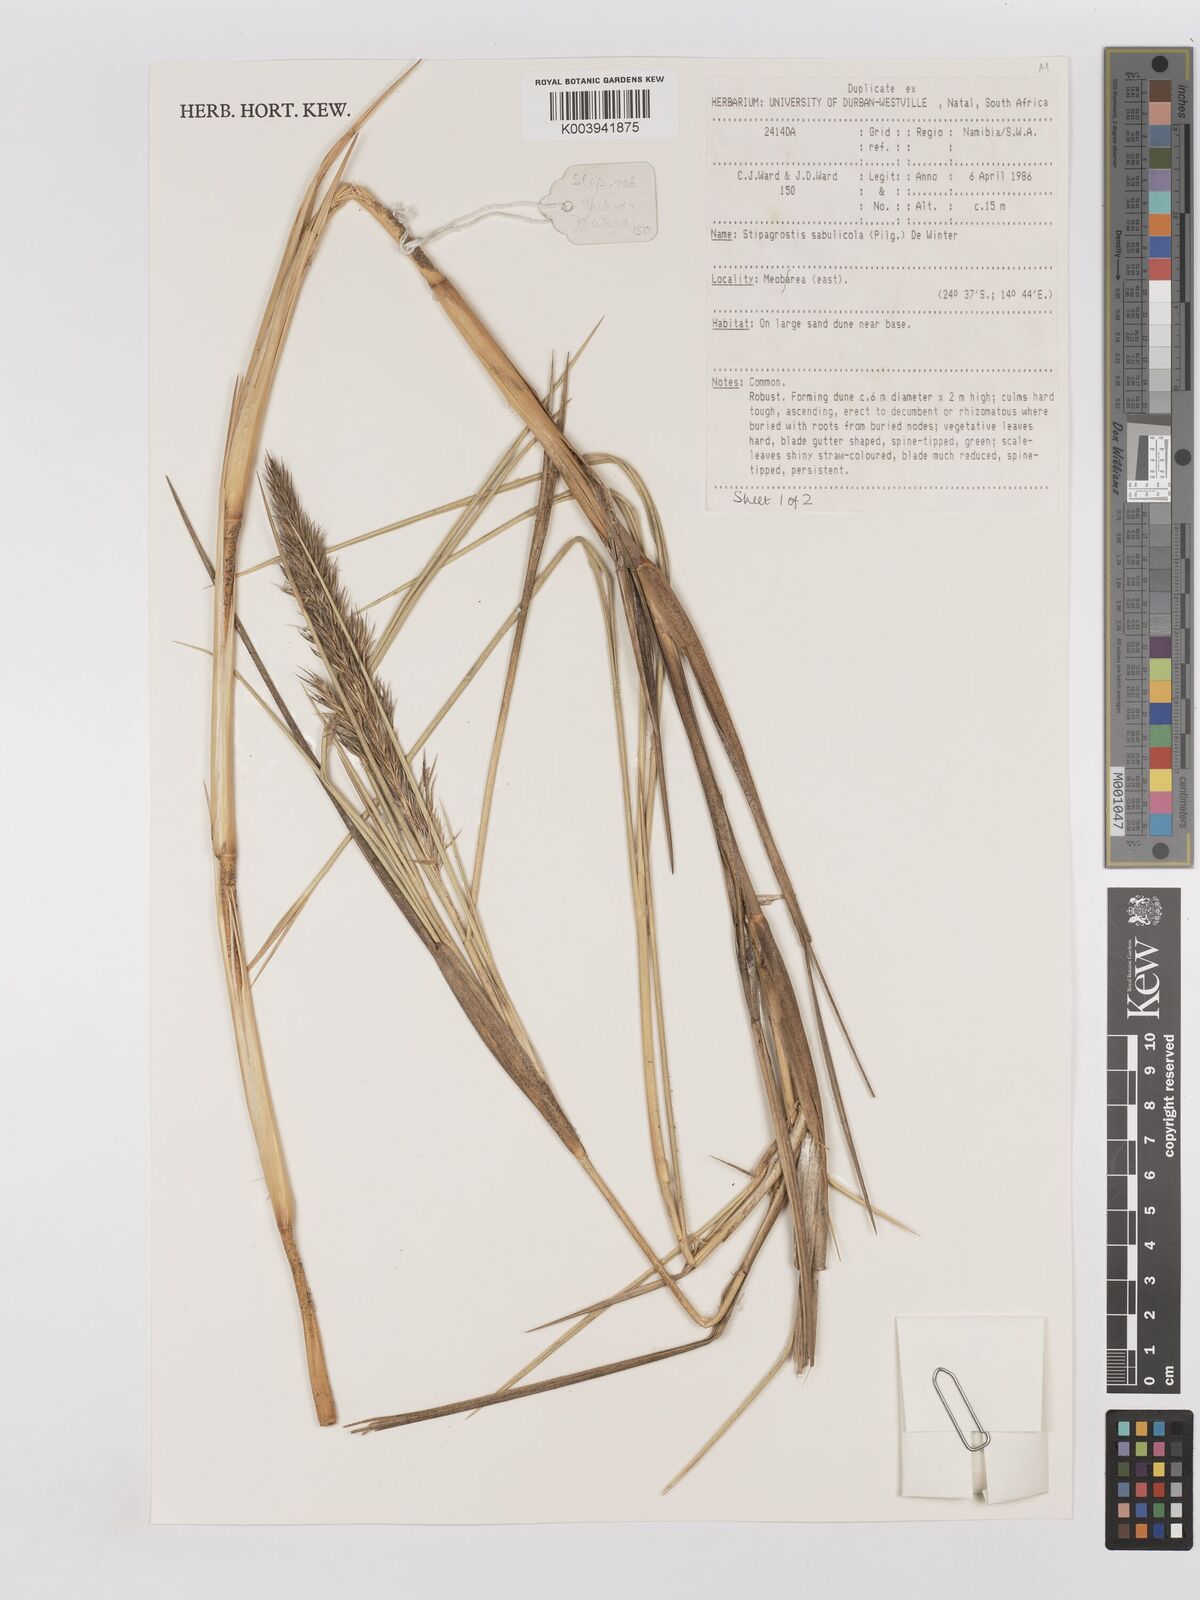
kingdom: Plantae
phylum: Tracheophyta
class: Liliopsida
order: Poales
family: Poaceae
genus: Stipagrostis
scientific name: Stipagrostis sabulicola
